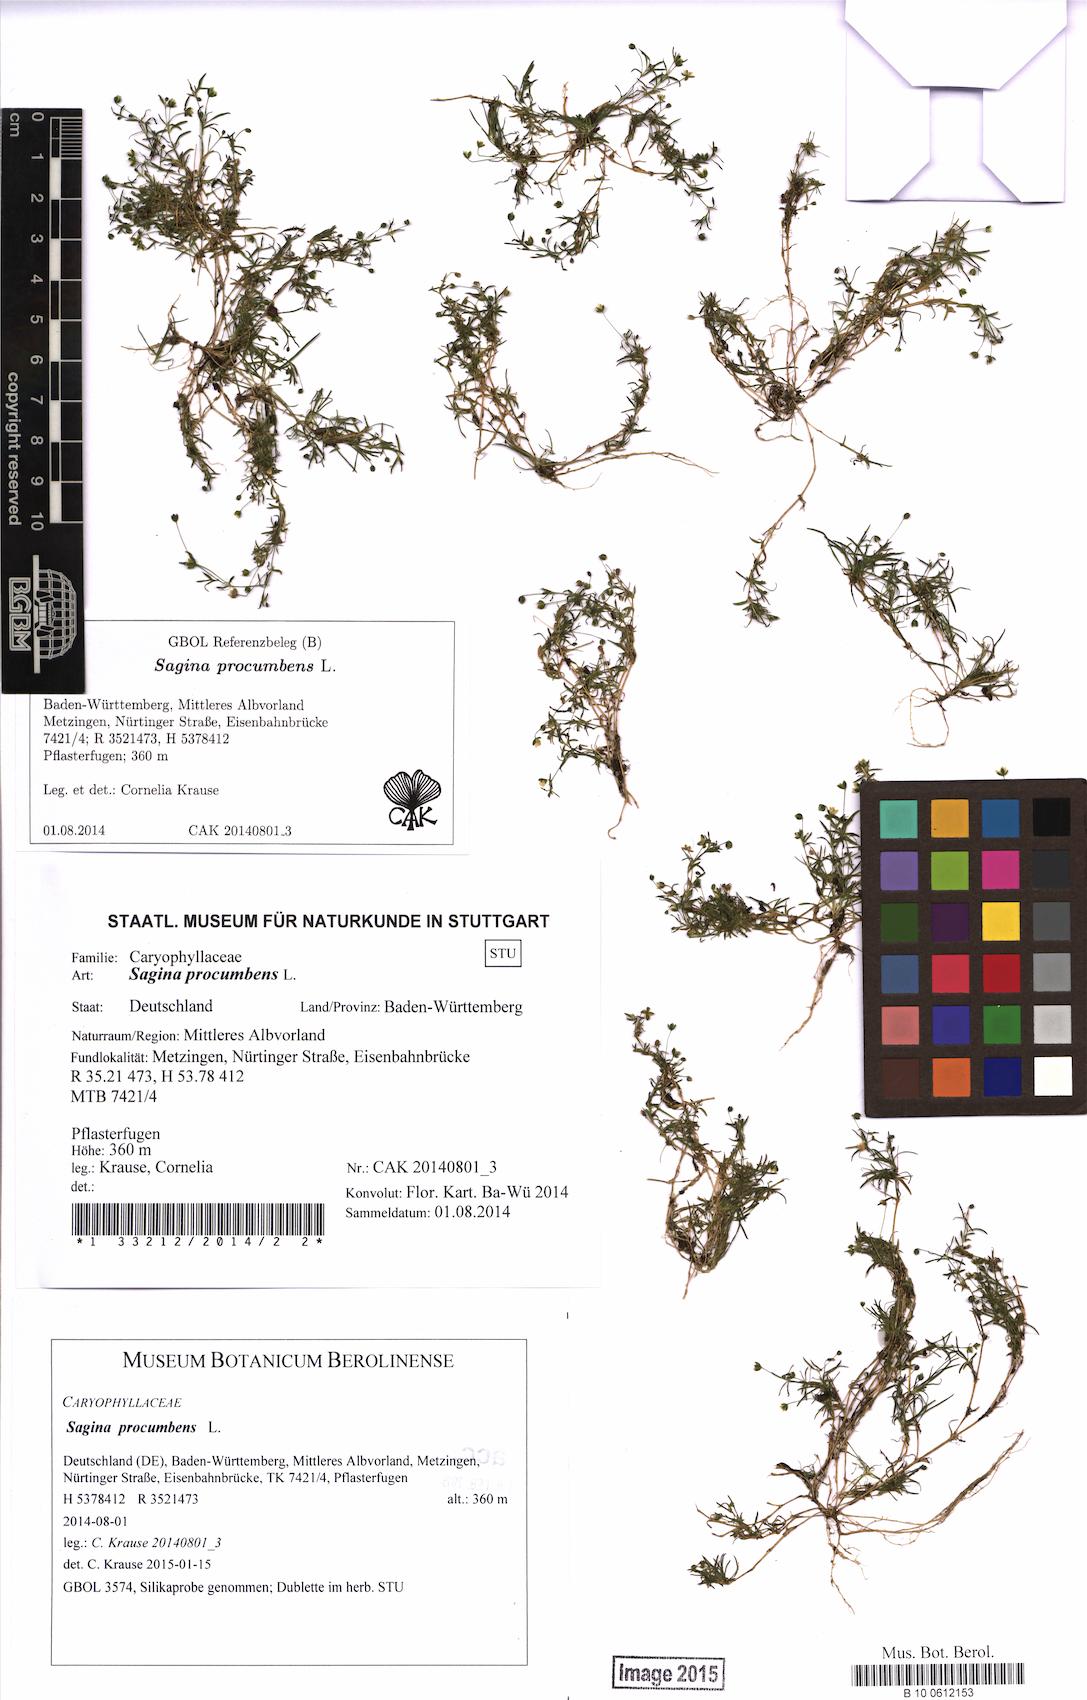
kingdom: Plantae
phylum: Tracheophyta
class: Magnoliopsida
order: Caryophyllales
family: Caryophyllaceae
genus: Sagina
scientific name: Sagina procumbens
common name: Procumbent pearlwort
